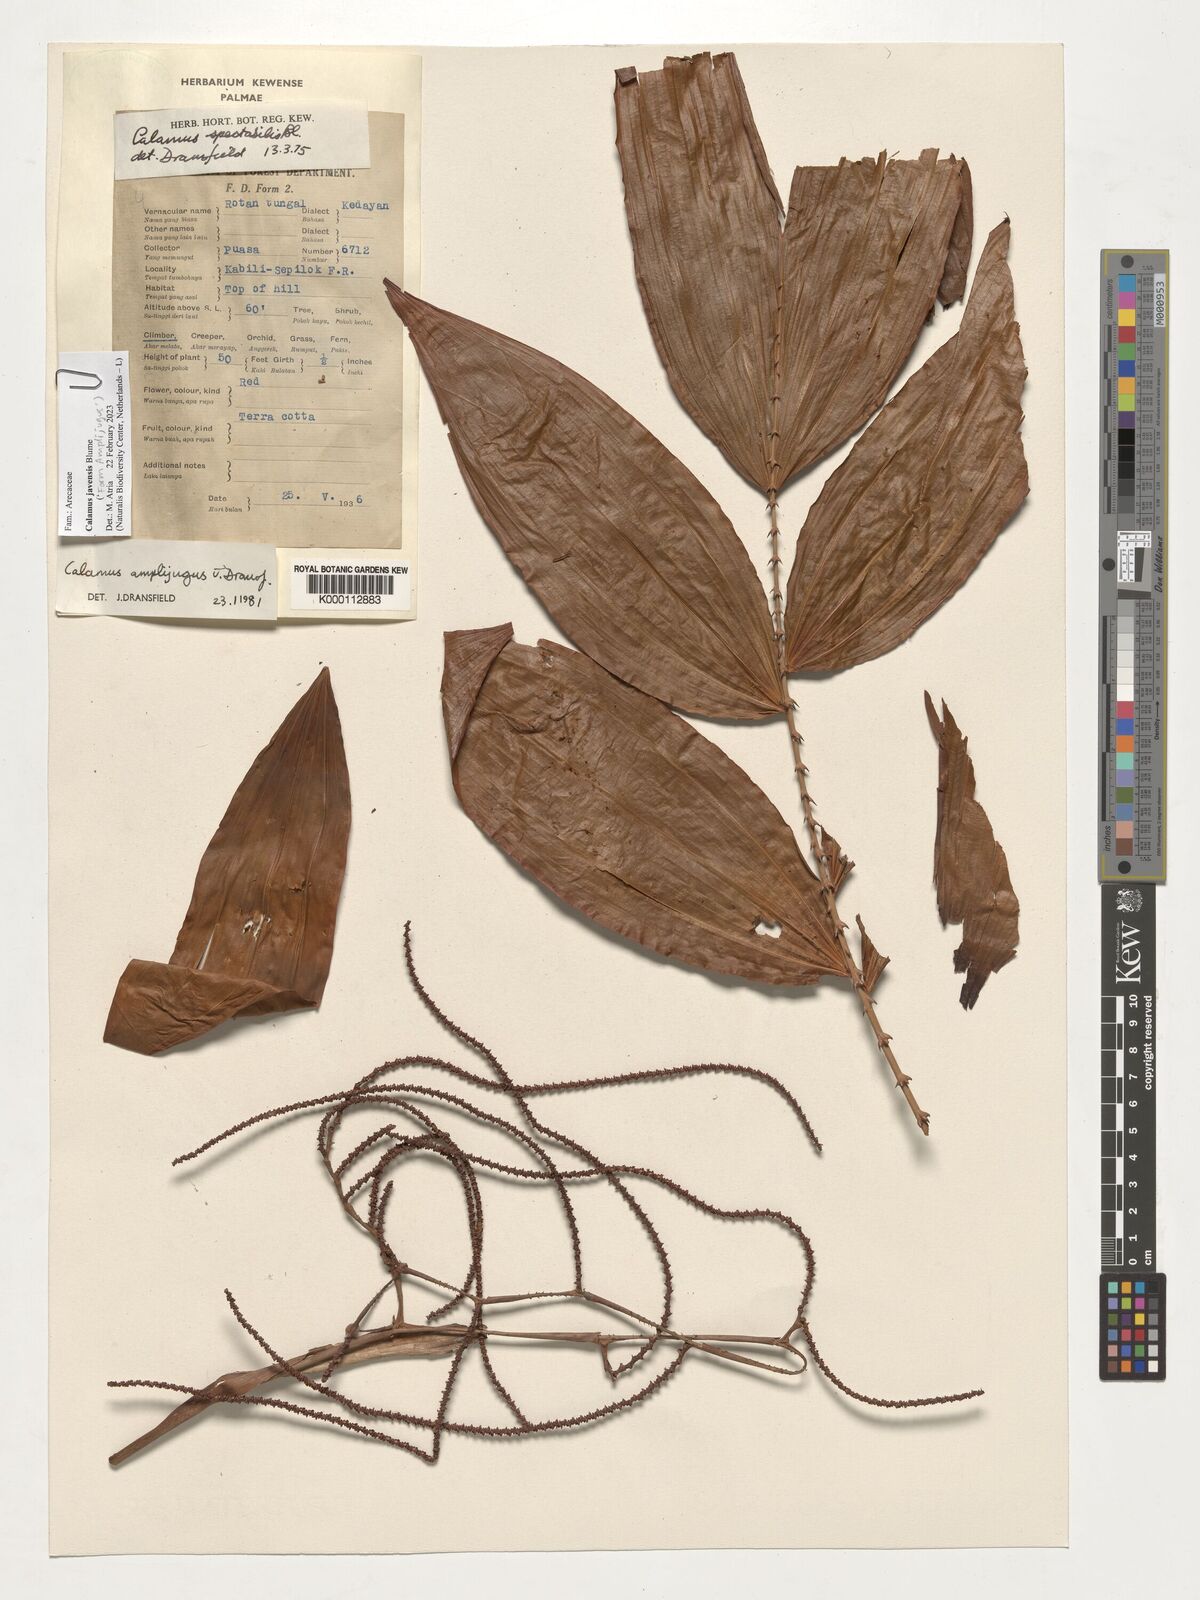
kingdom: Plantae
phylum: Tracheophyta
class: Liliopsida
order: Arecales
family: Arecaceae
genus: Calamus
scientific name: Calamus javensis
